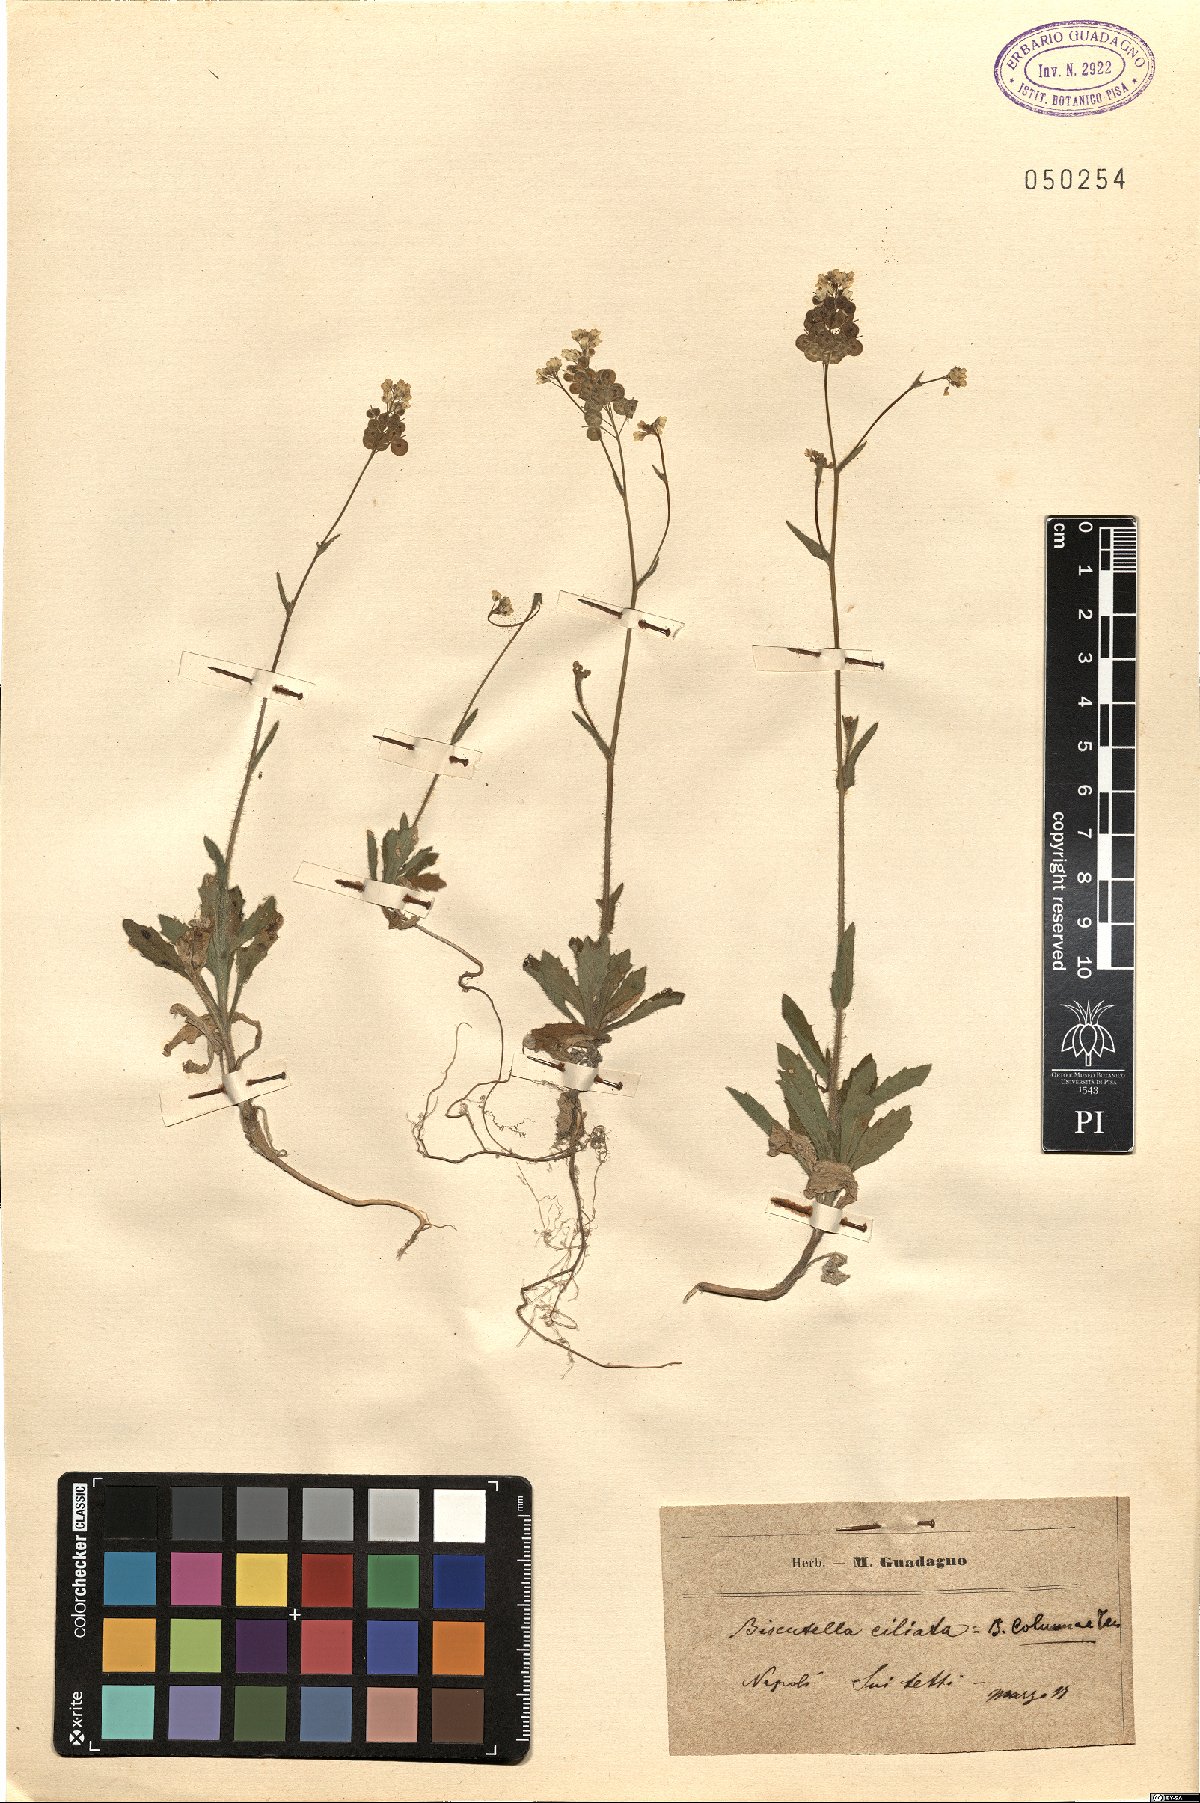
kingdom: Plantae
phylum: Tracheophyta
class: Magnoliopsida
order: Brassicales
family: Brassicaceae
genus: Biscutella
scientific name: Biscutella didyma
